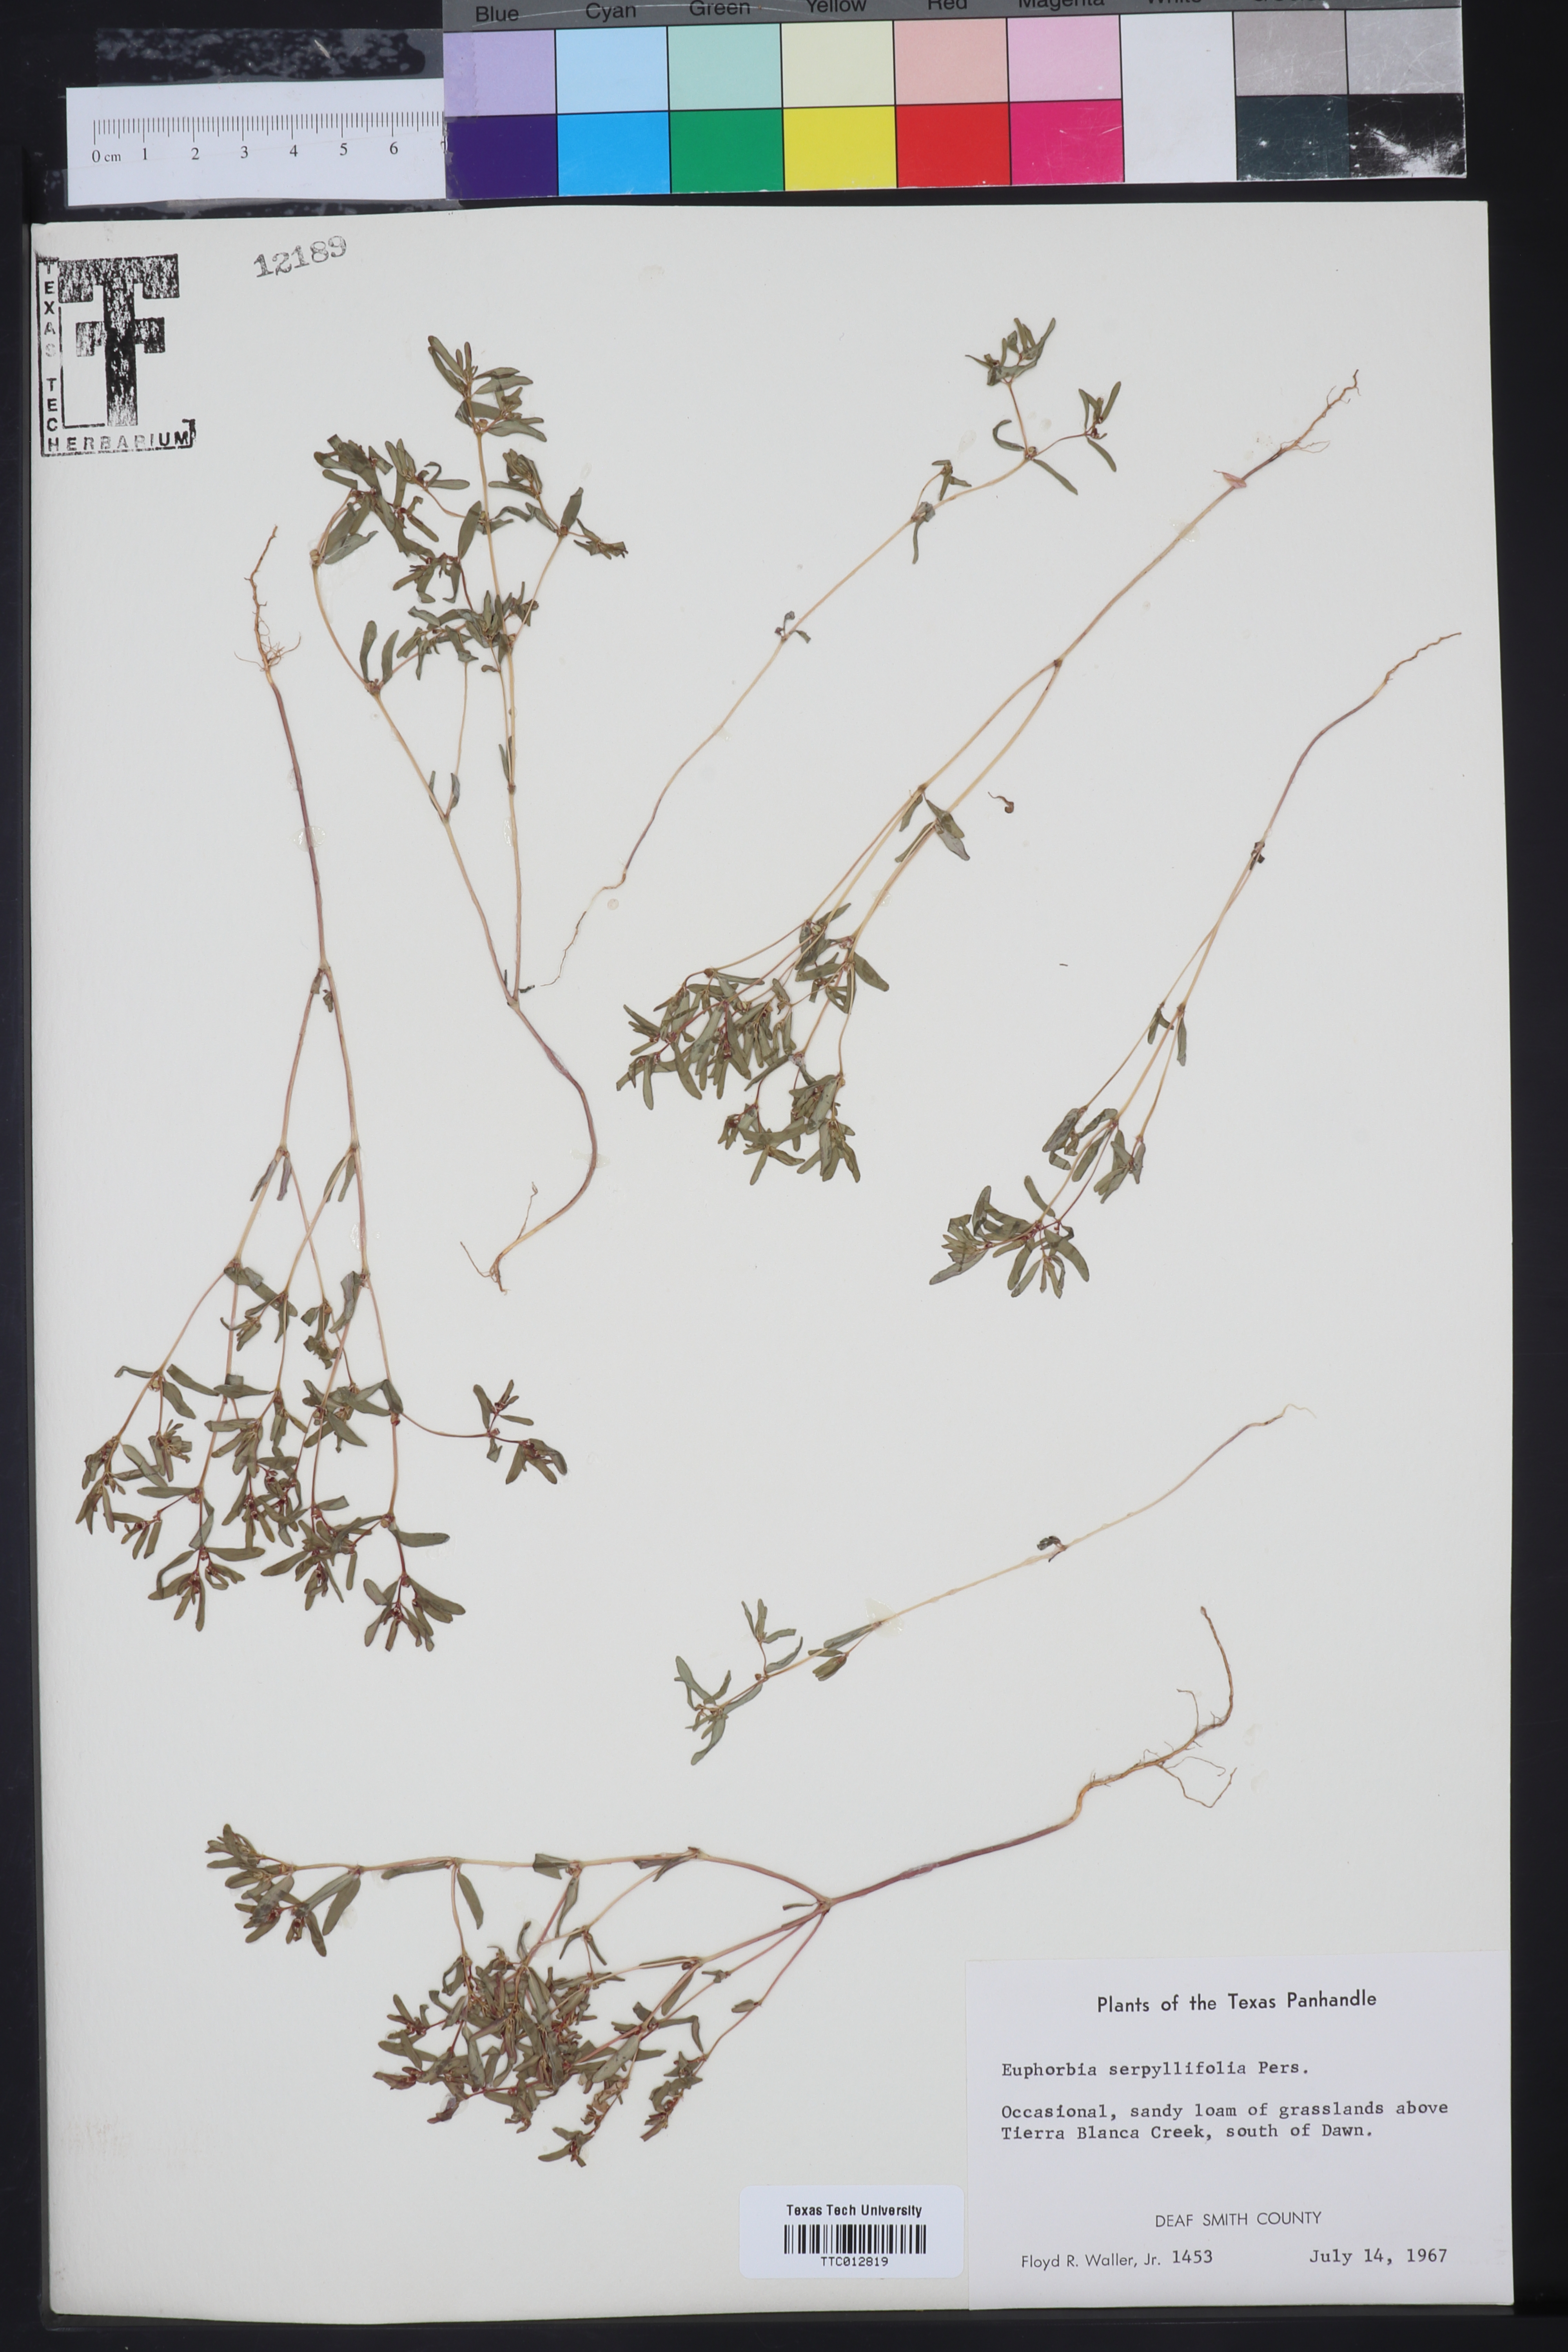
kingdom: Plantae
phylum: Tracheophyta
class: Magnoliopsida
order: Malpighiales
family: Euphorbiaceae
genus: Euphorbia
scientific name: Euphorbia serpillifolia
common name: Thyme-leaf spurge
